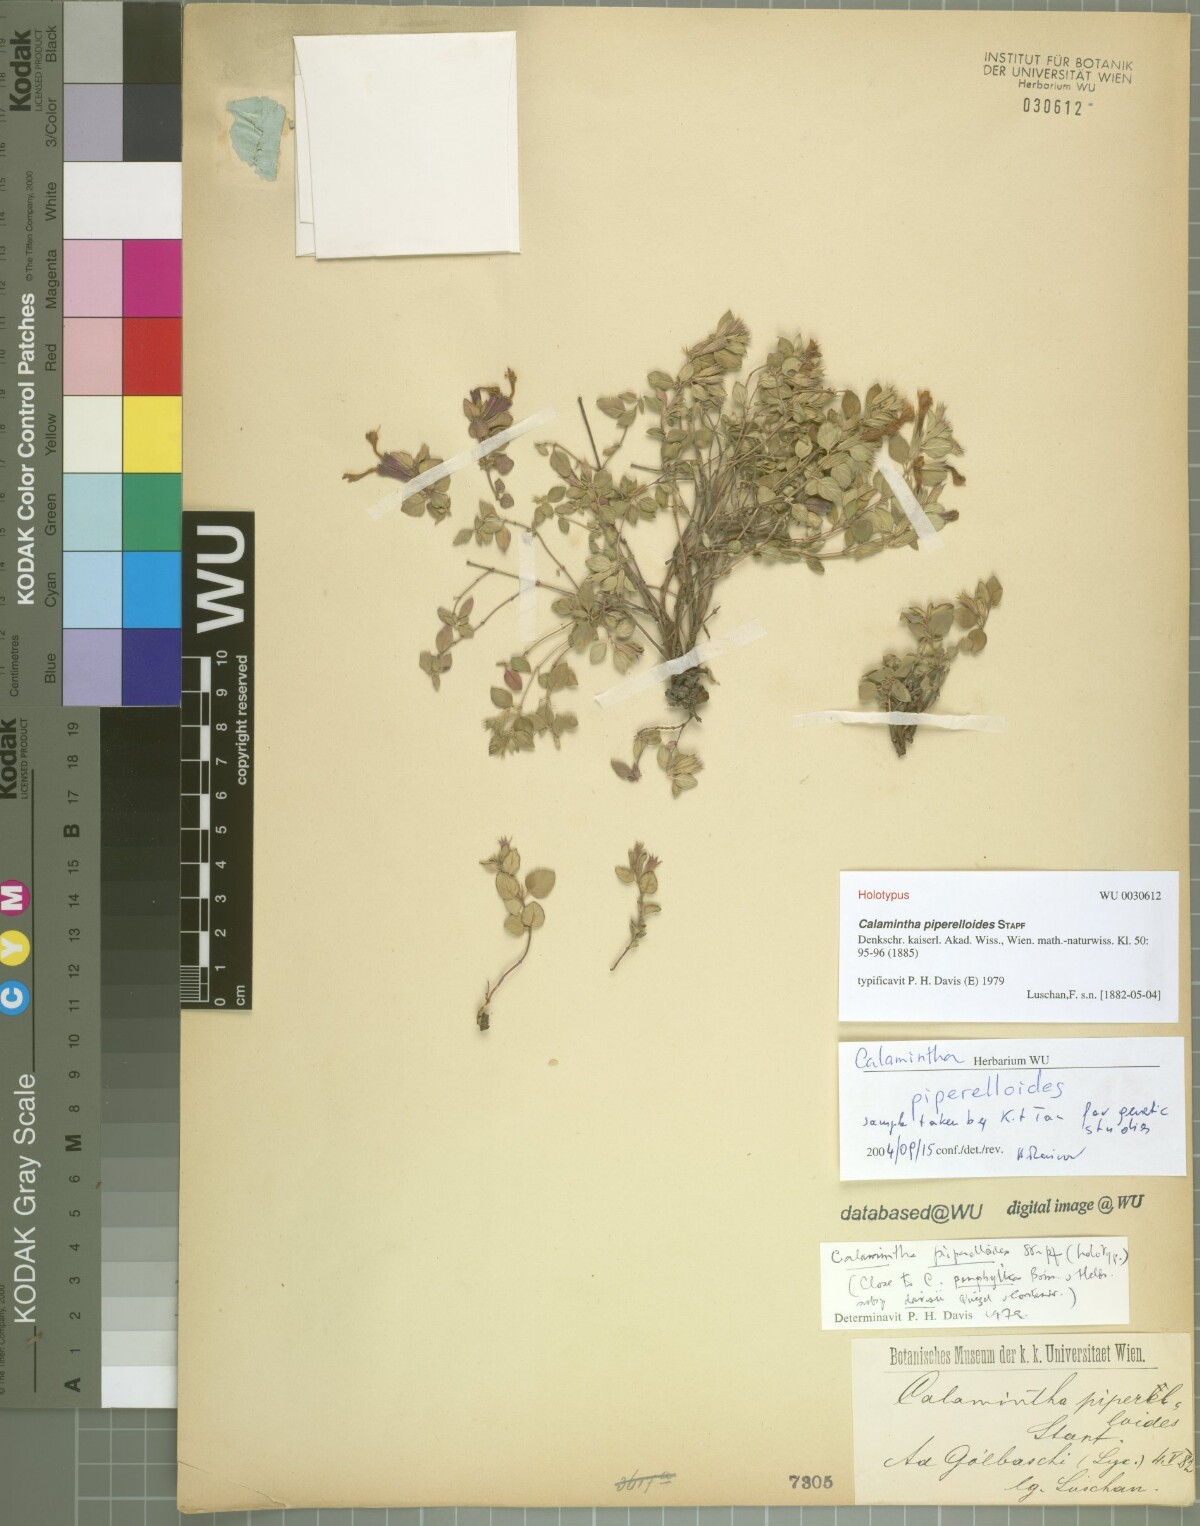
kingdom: Plantae
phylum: Tracheophyta
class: Magnoliopsida
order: Lamiales
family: Lamiaceae
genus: Clinopodium
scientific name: Clinopodium pamphylicum
